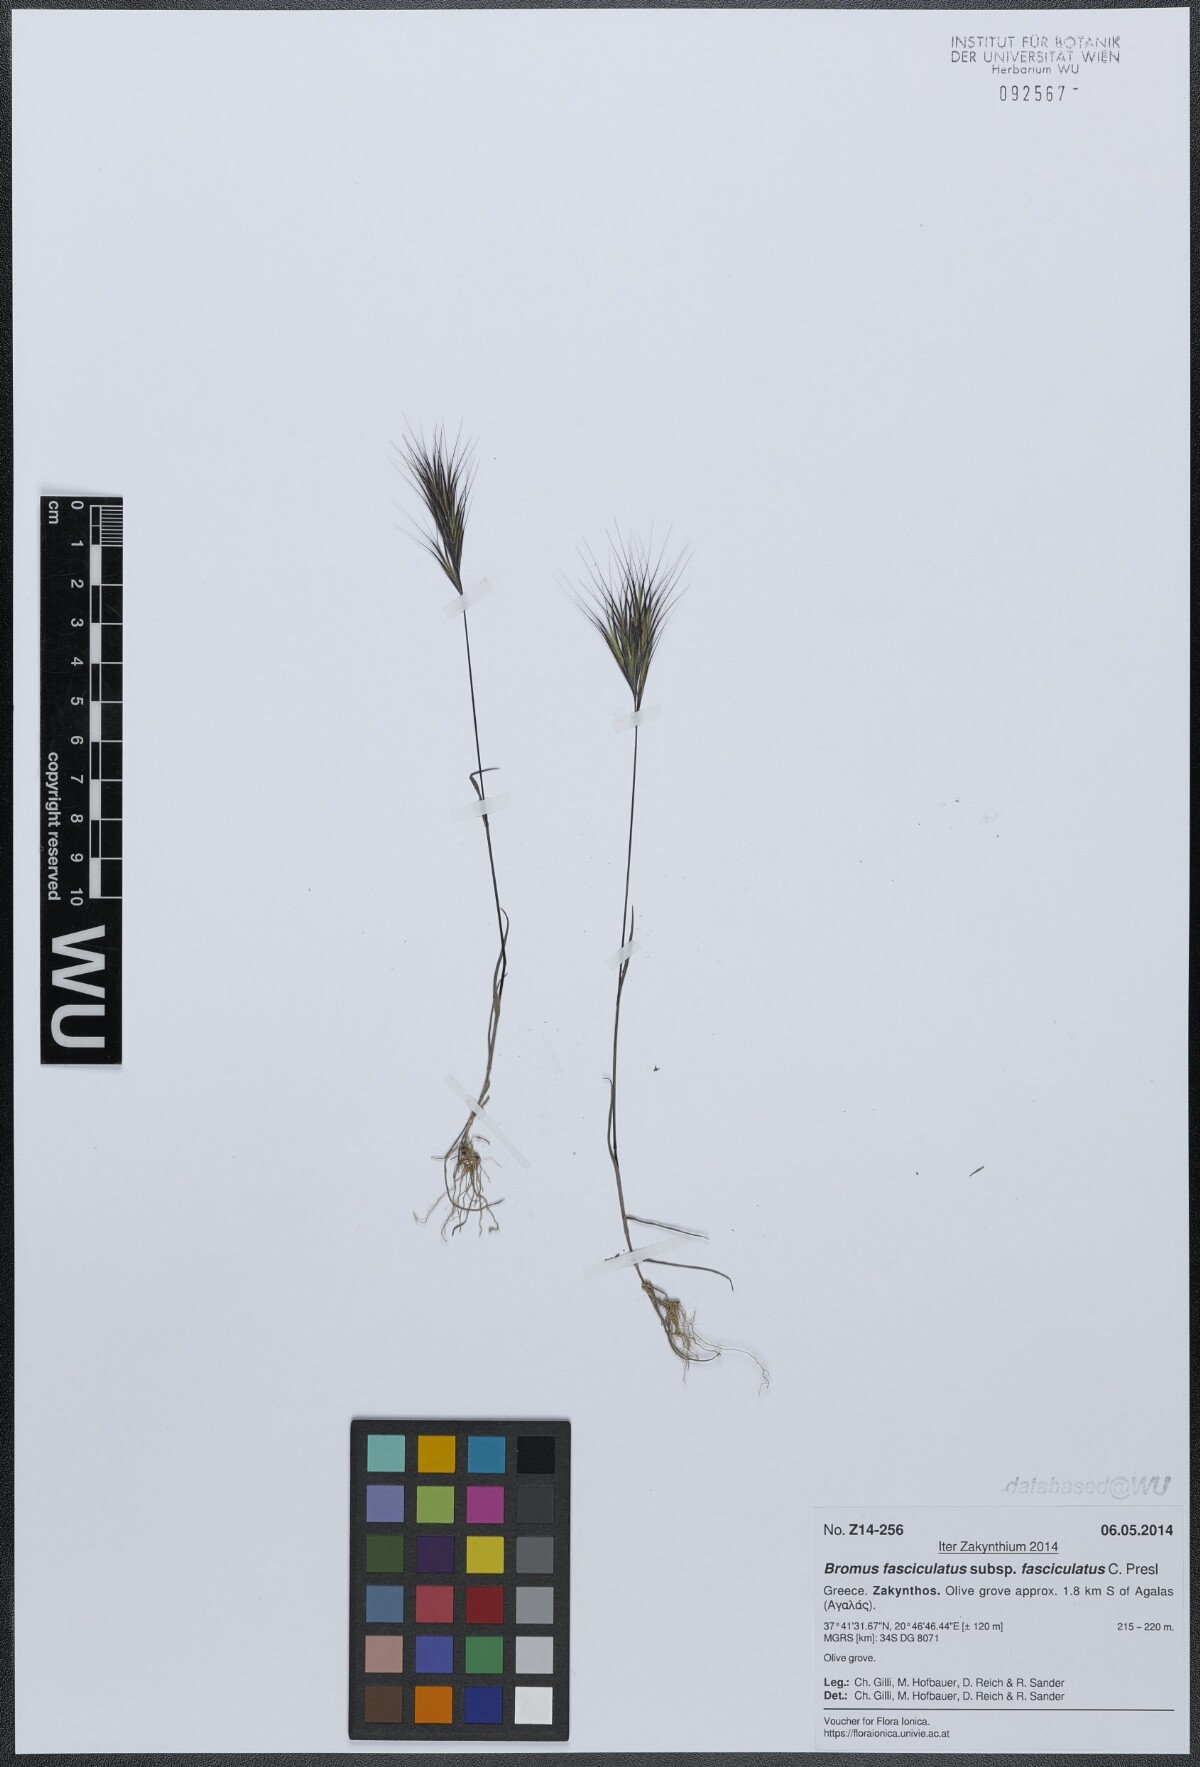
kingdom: Plantae
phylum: Tracheophyta
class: Liliopsida
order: Poales
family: Poaceae
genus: Bromus
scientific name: Bromus fasciculatus
